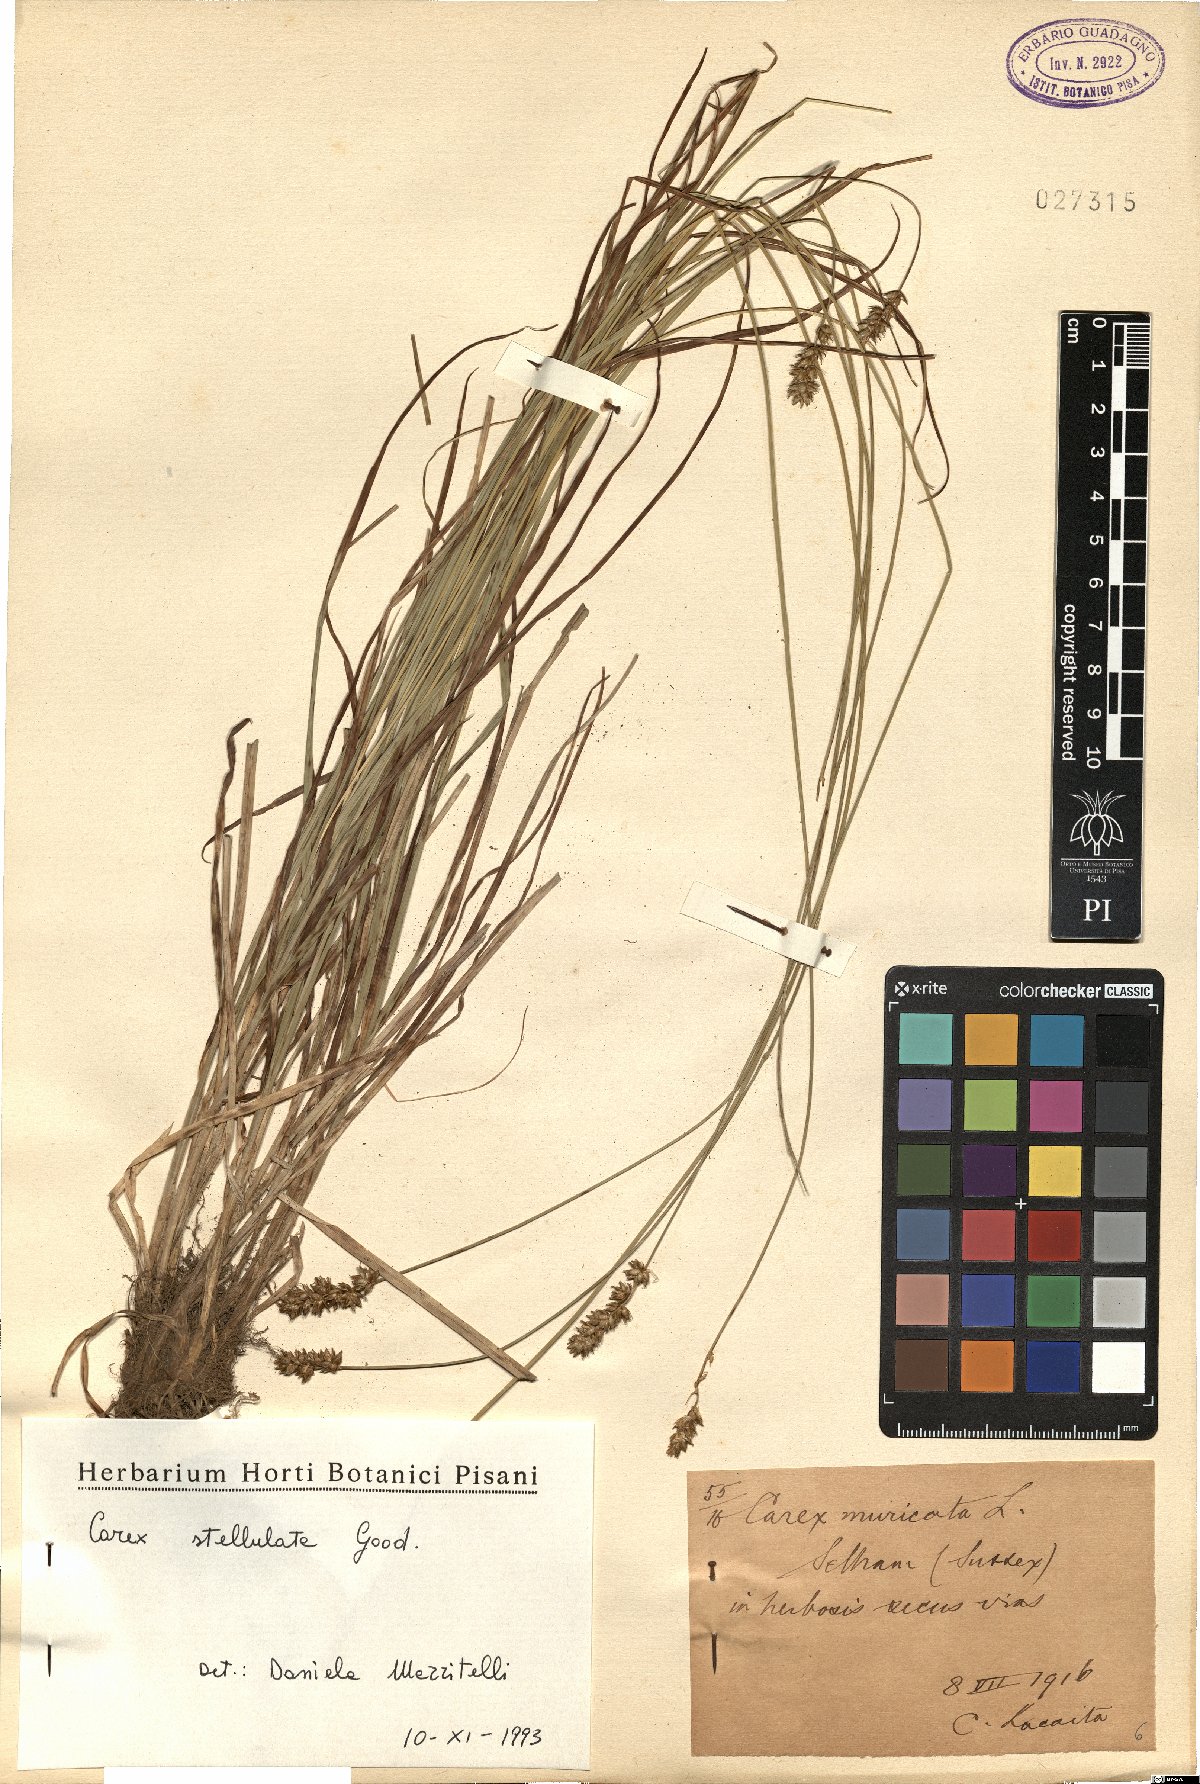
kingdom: Plantae
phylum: Tracheophyta
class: Liliopsida
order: Poales
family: Cyperaceae
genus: Carex
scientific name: Carex echinata
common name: Star sedge
